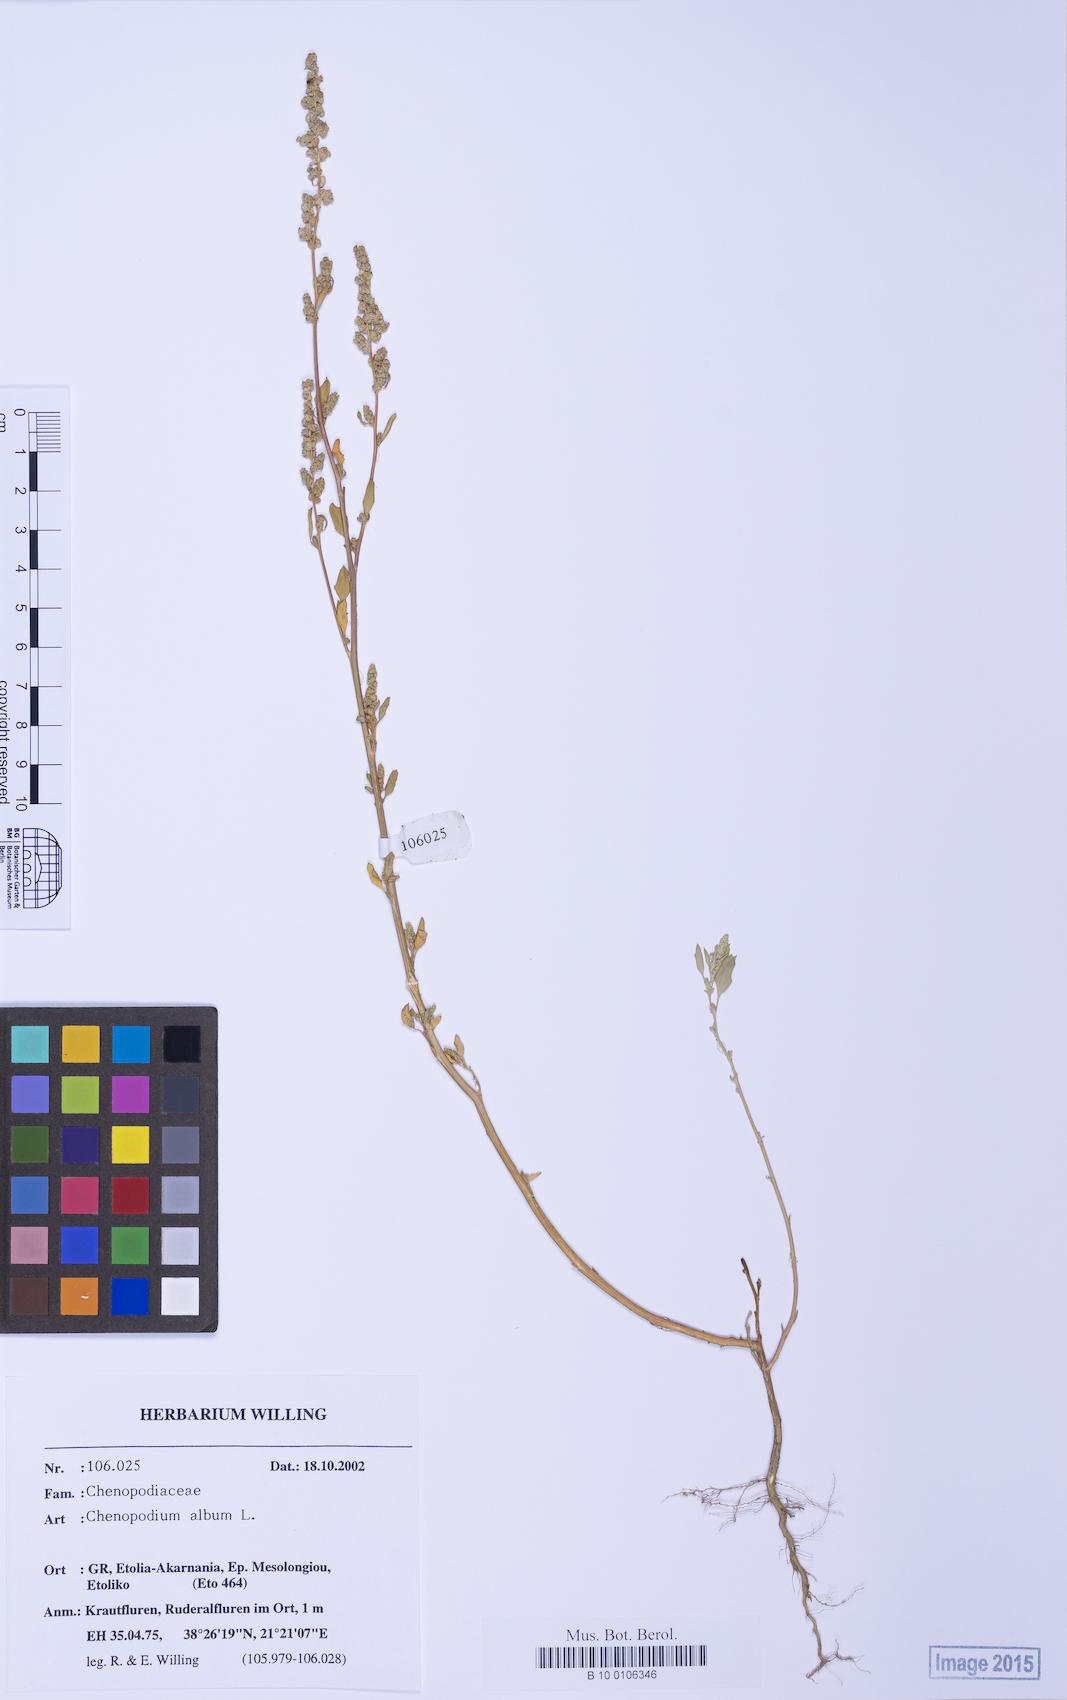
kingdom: Plantae
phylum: Tracheophyta
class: Magnoliopsida
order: Caryophyllales
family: Amaranthaceae
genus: Chenopodium
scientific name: Chenopodium betaceum
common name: Striped goosefoot
